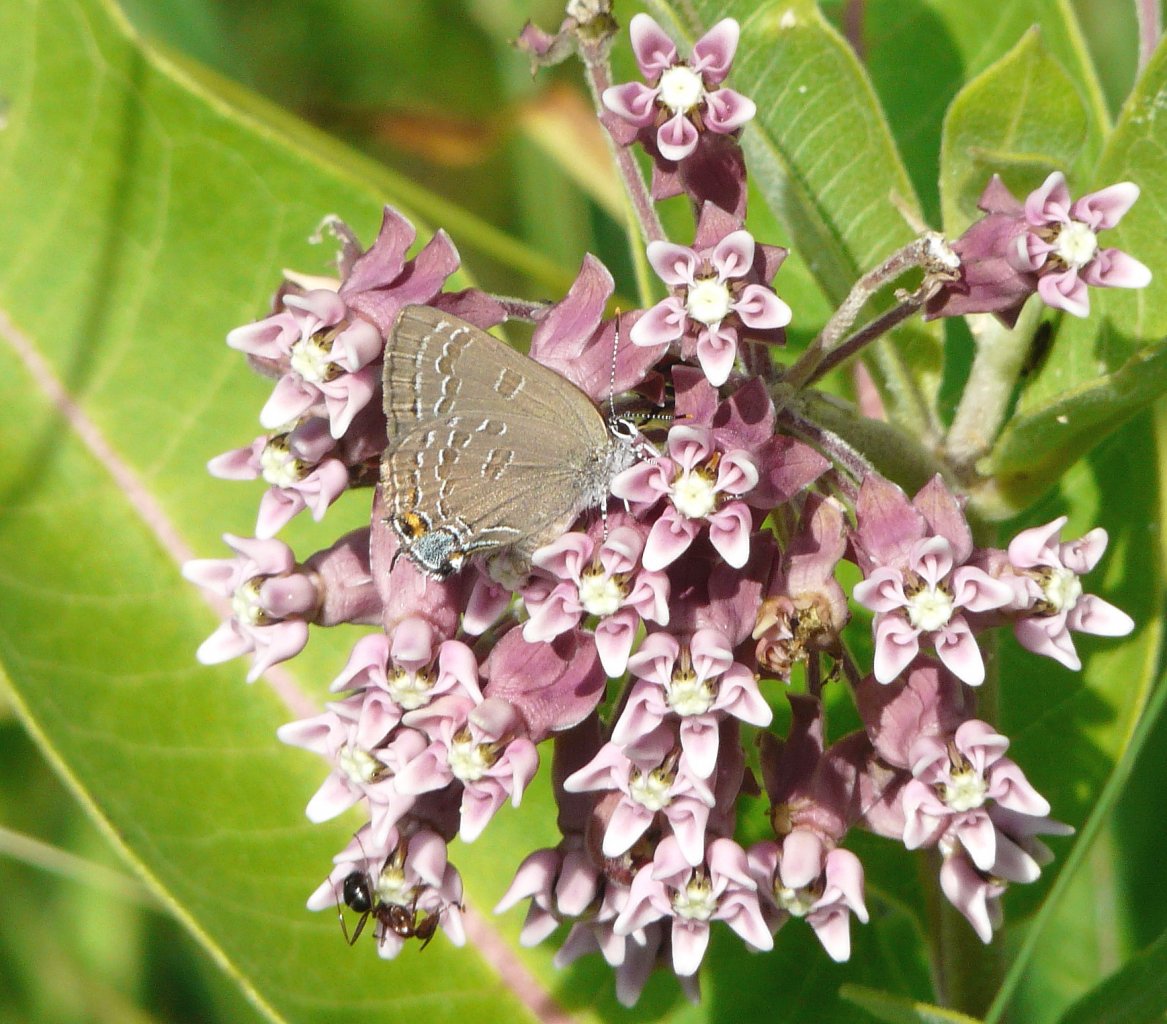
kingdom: Animalia
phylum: Arthropoda
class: Insecta
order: Lepidoptera
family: Lycaenidae
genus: Satyrium
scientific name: Satyrium calanus
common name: Banded Hairstreak
